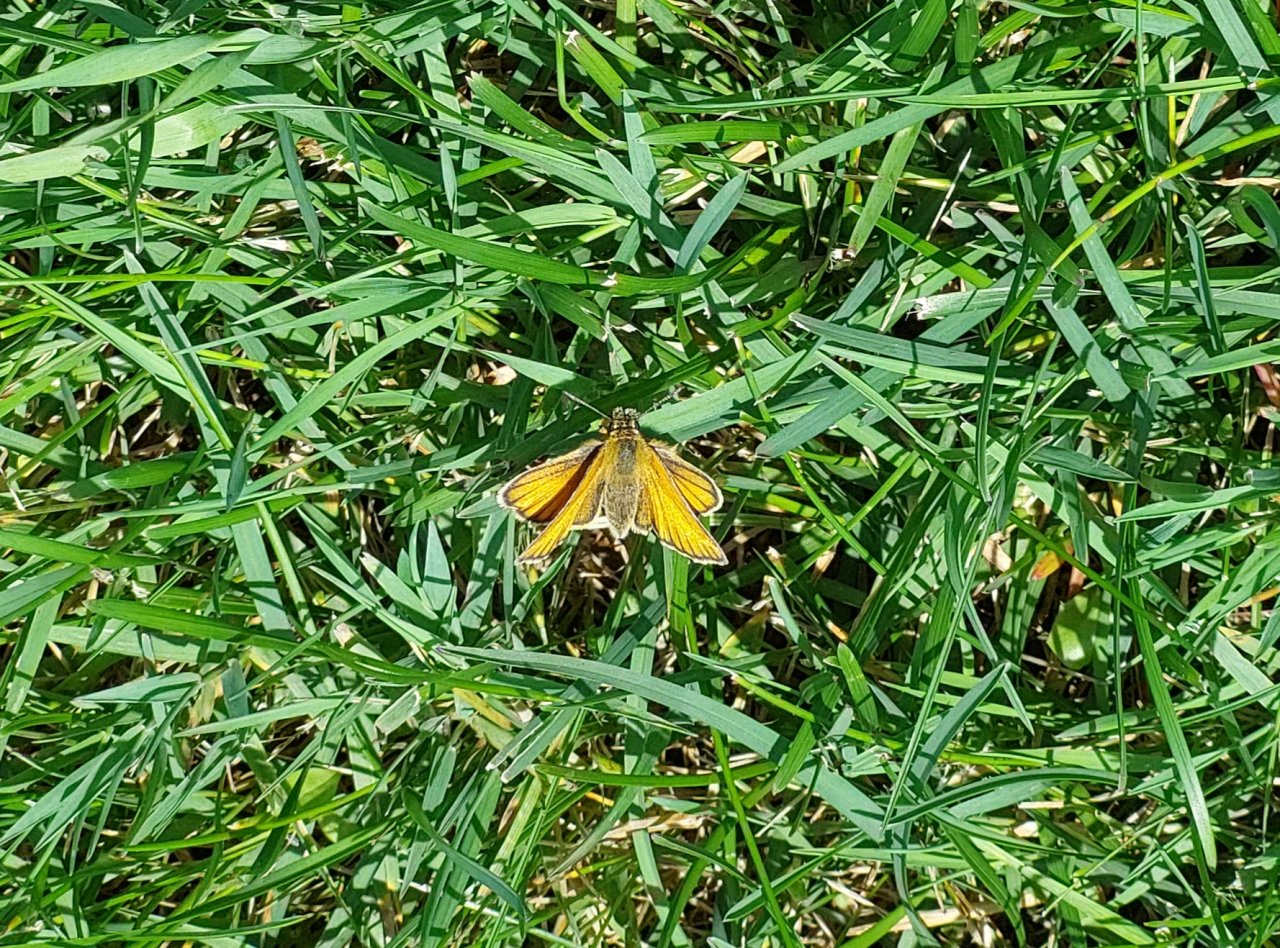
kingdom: Animalia
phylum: Arthropoda
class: Insecta
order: Lepidoptera
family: Hesperiidae
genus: Thymelicus
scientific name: Thymelicus lineola
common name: European Skipper
